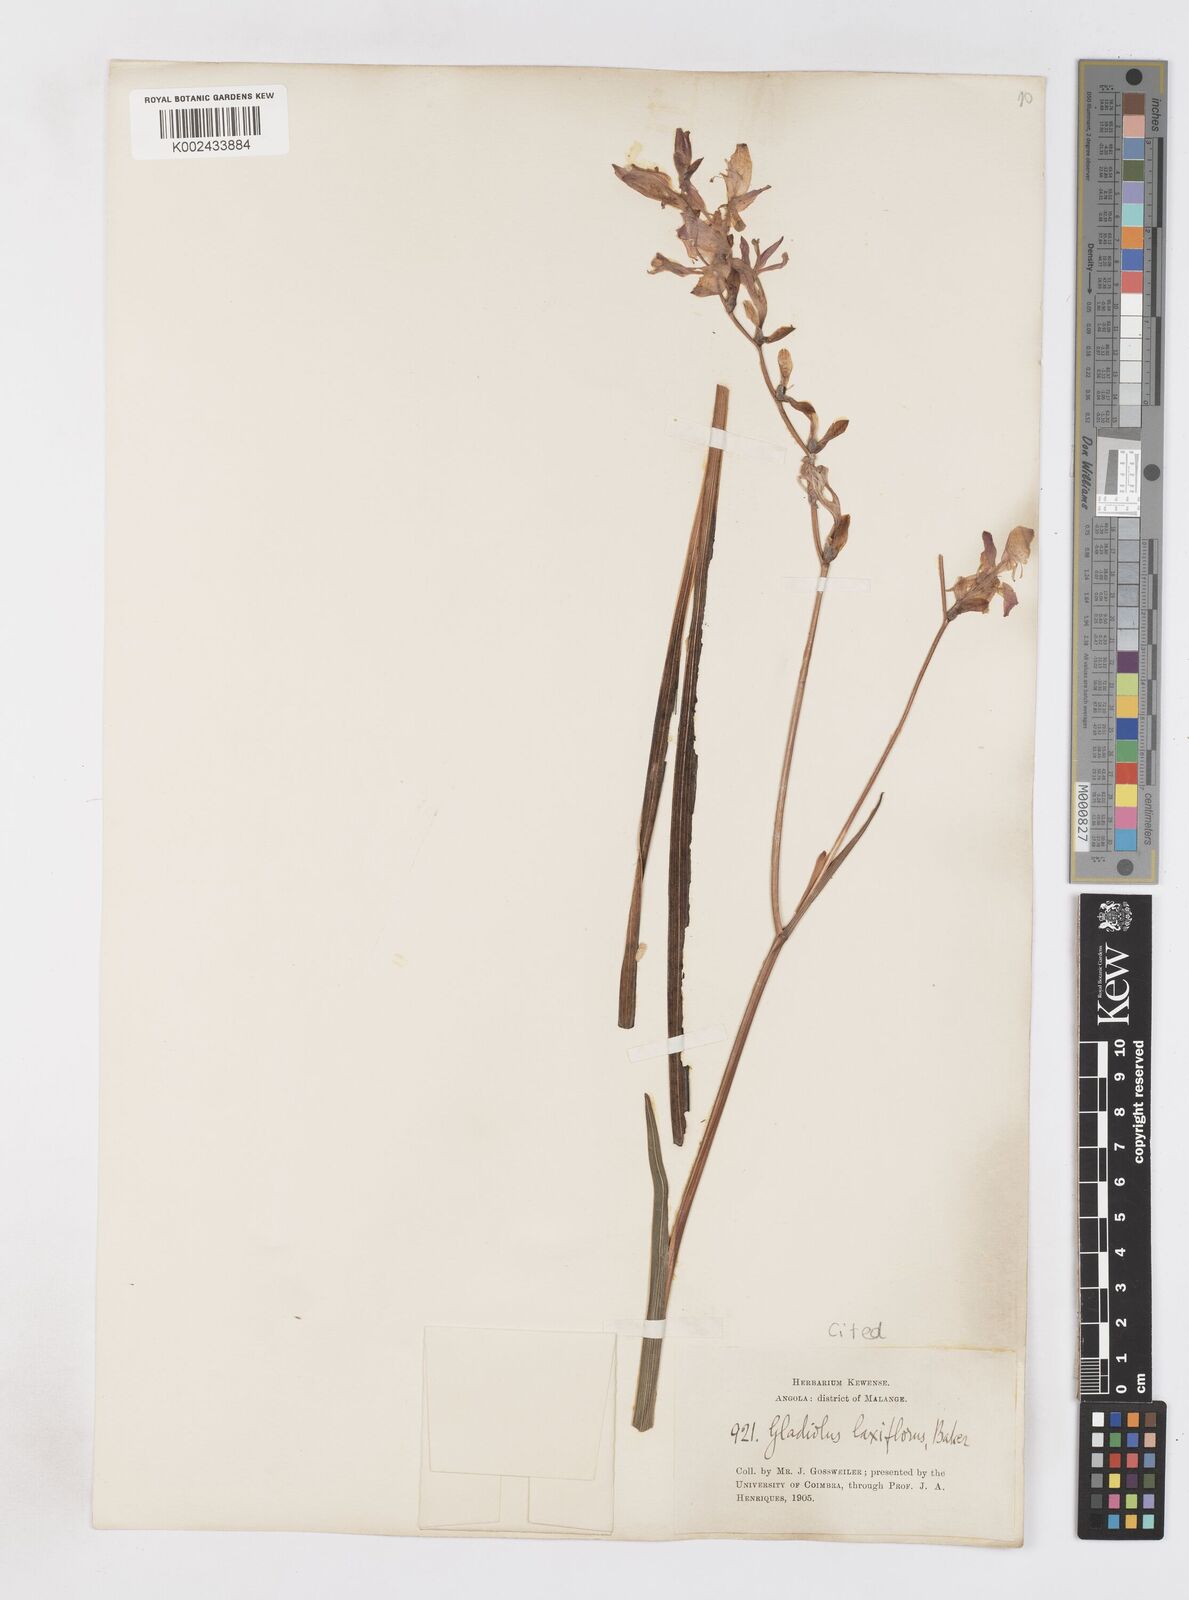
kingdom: Plantae
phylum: Tracheophyta
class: Liliopsida
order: Asparagales
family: Iridaceae
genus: Gladiolus
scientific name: Gladiolus laxiflorus
